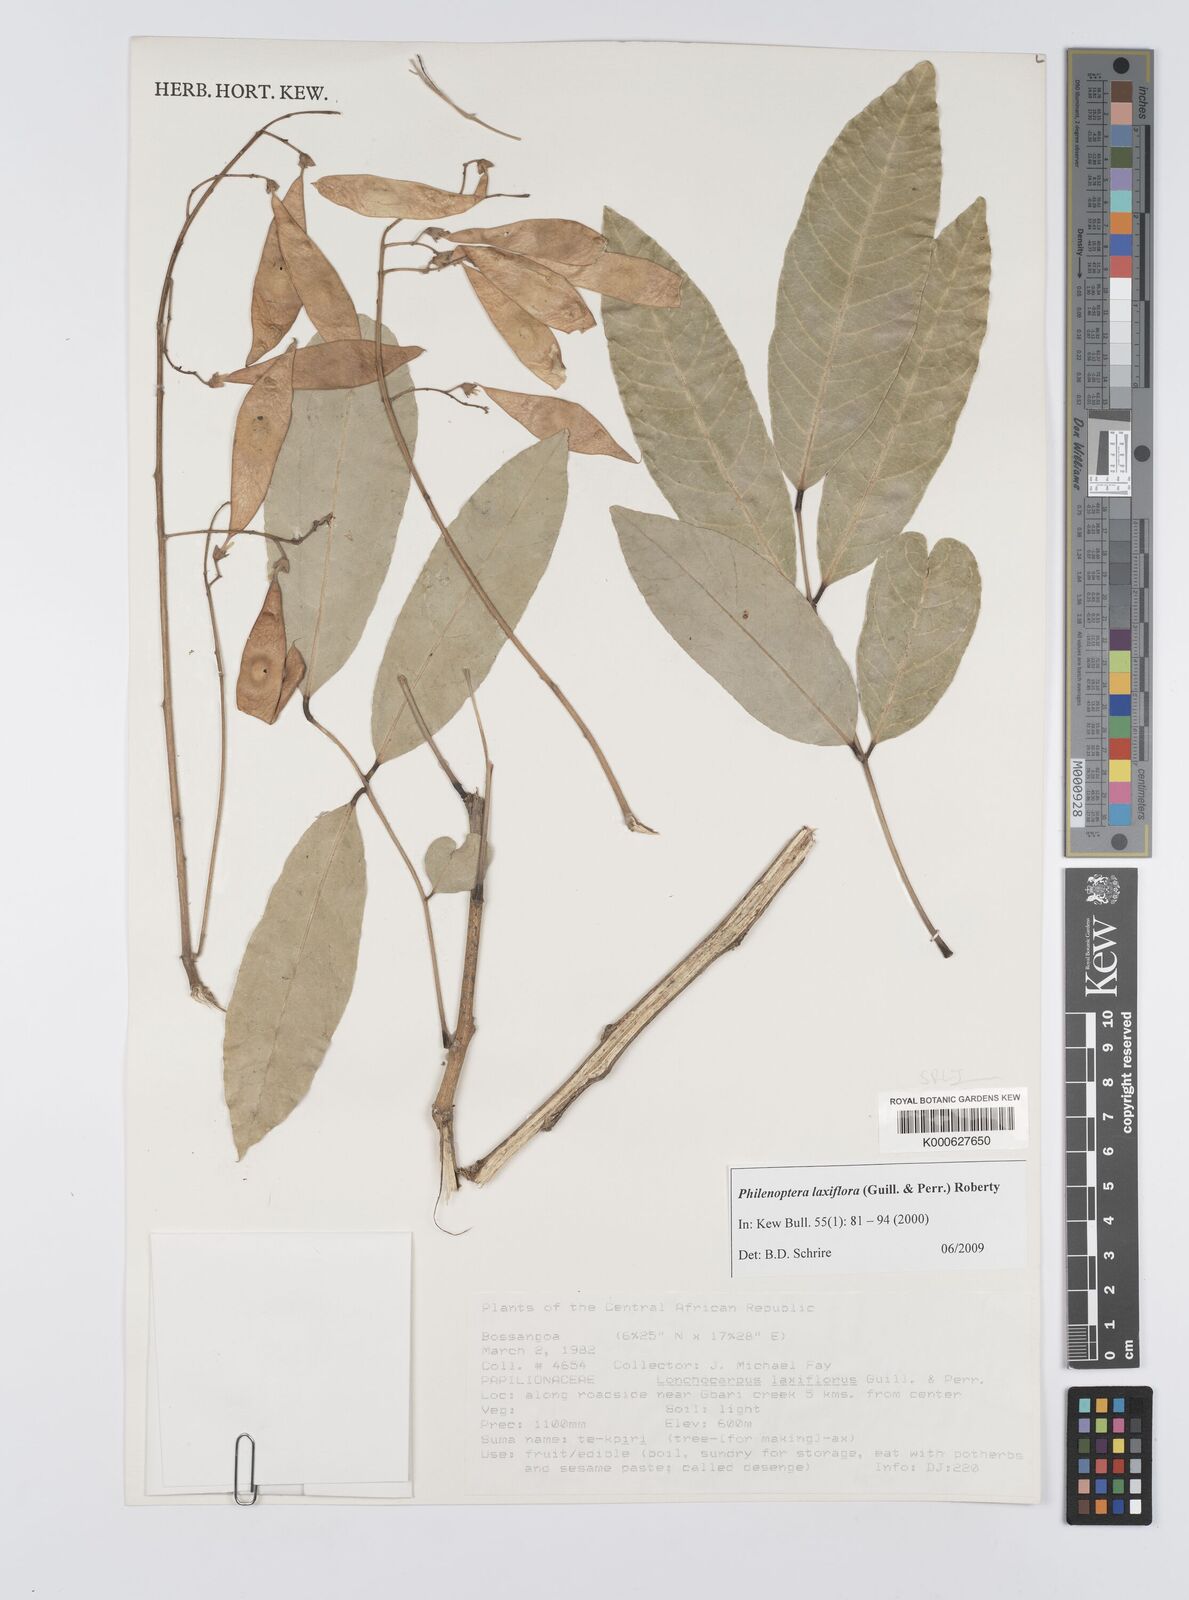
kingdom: Plantae
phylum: Tracheophyta
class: Magnoliopsida
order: Fabales
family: Fabaceae
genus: Philenoptera
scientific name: Philenoptera laxiflora
